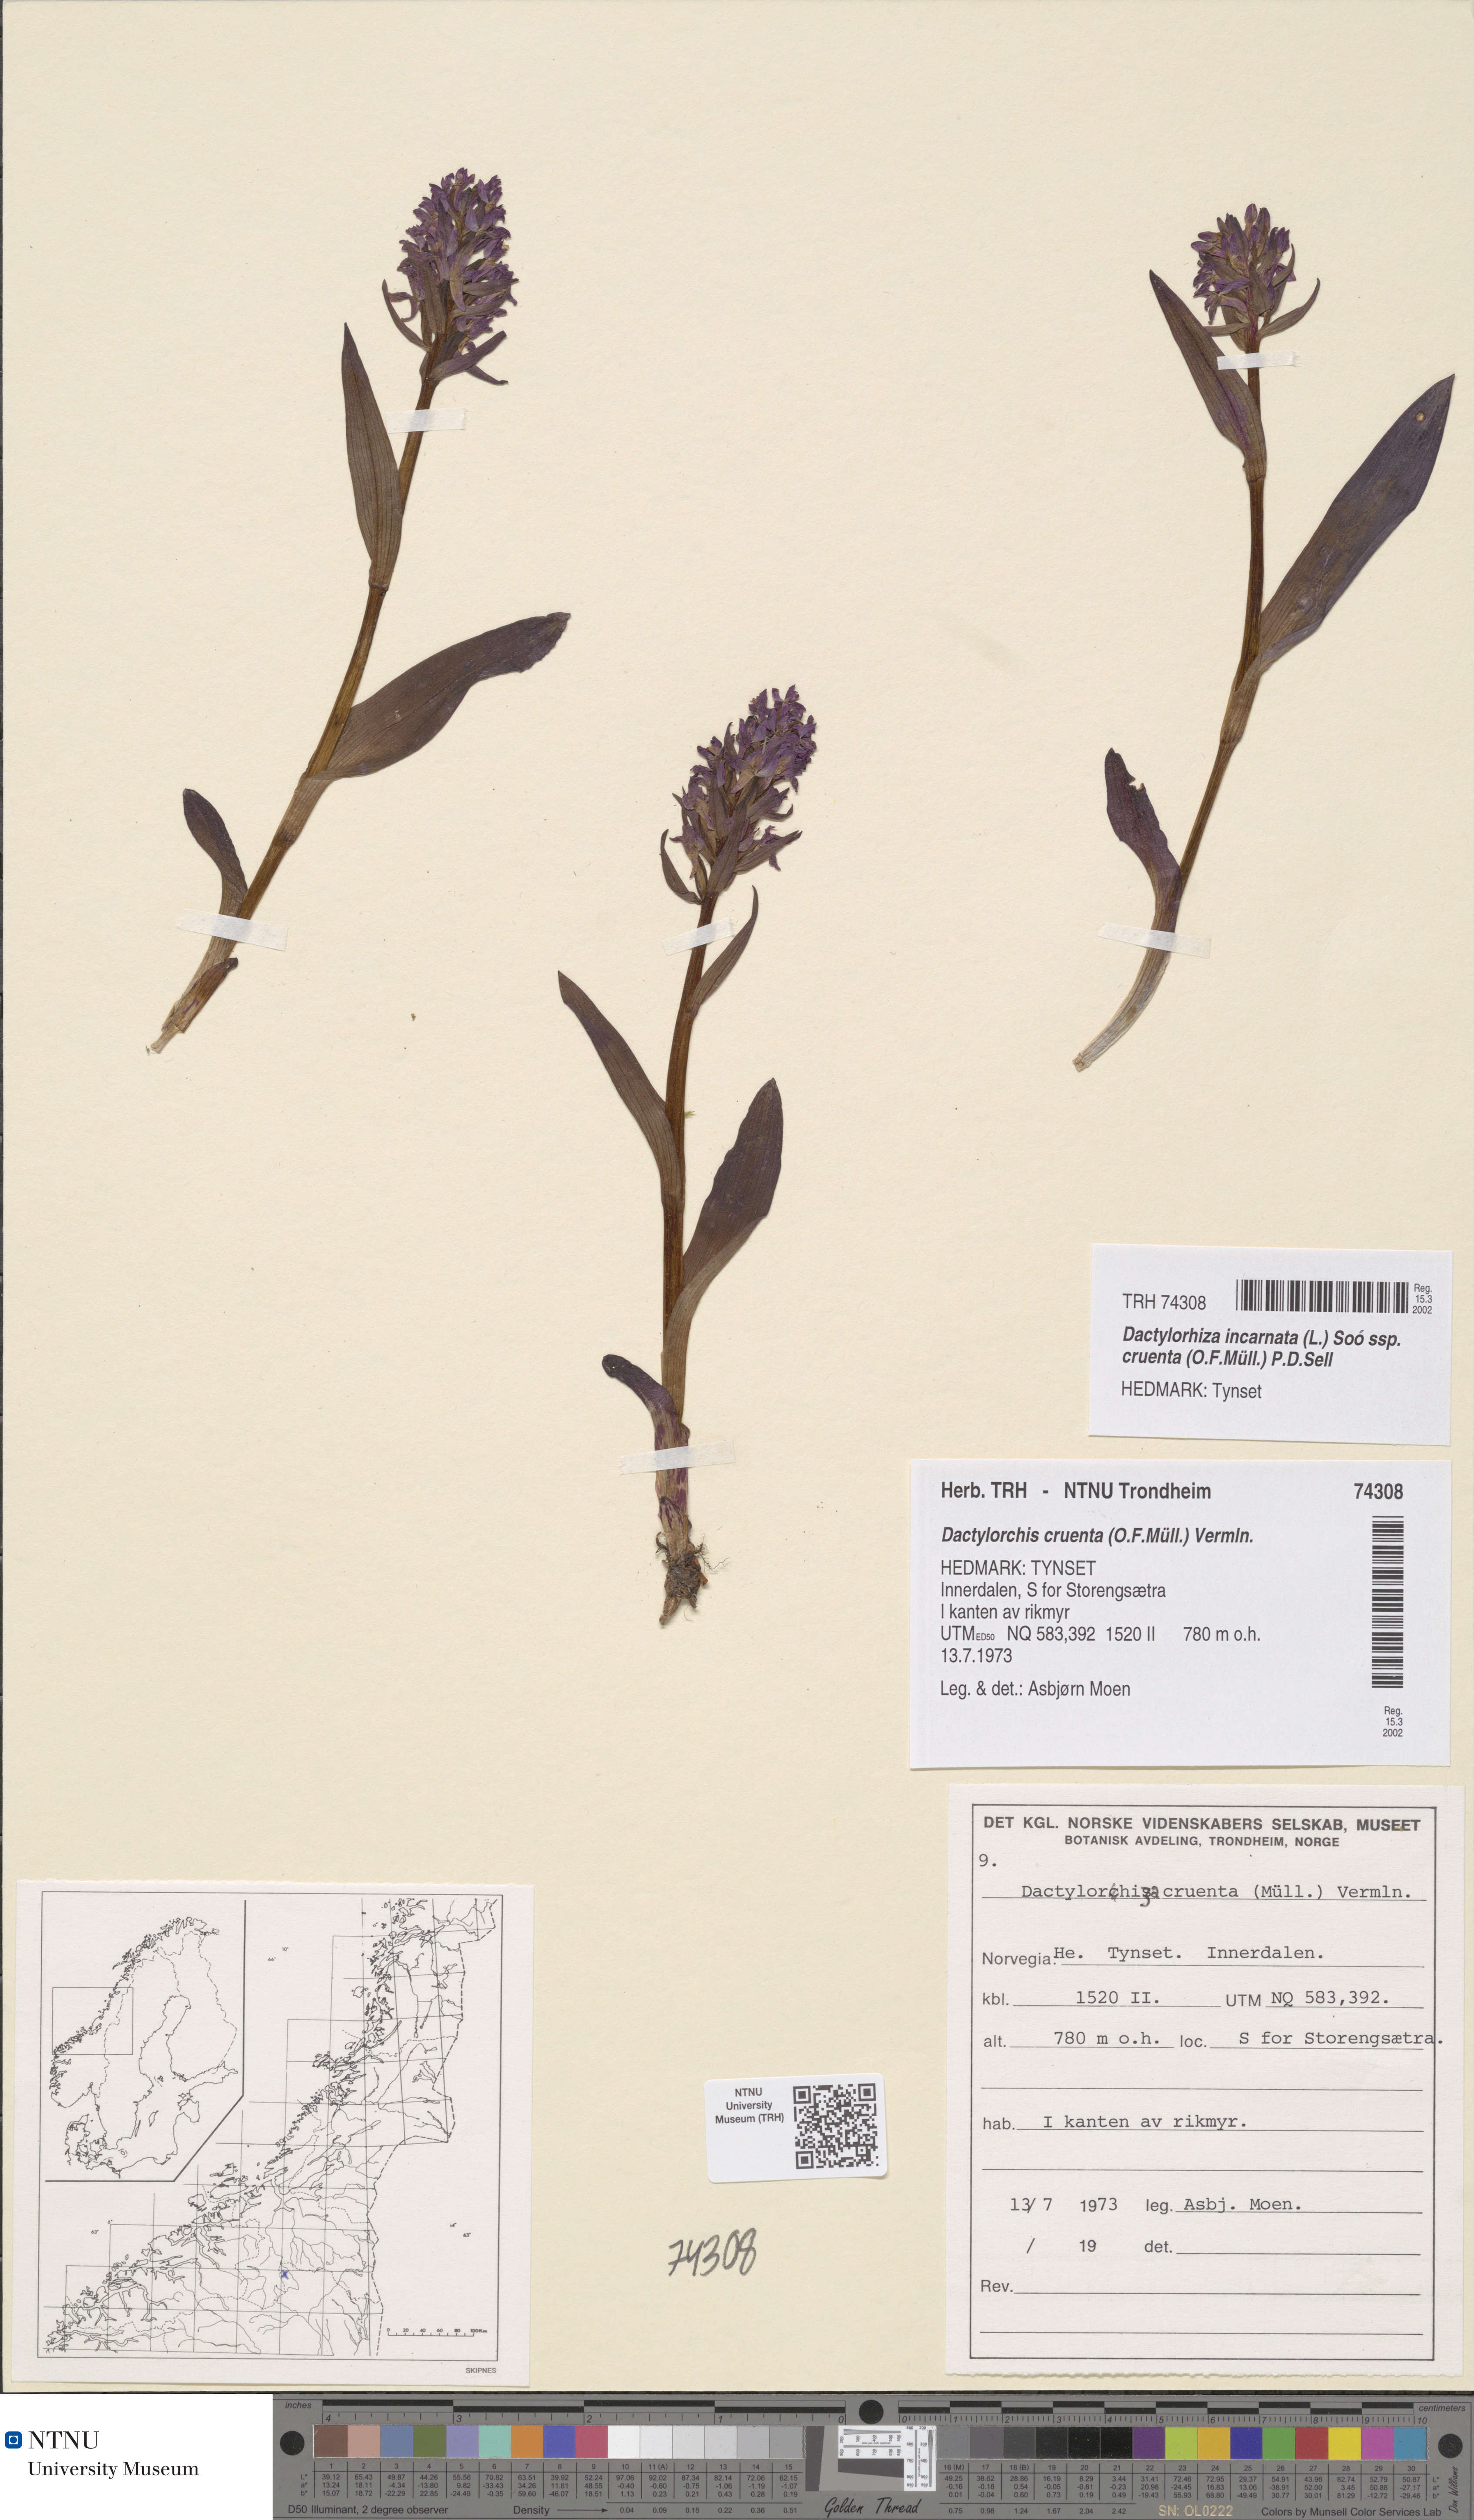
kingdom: Plantae
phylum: Tracheophyta
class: Liliopsida
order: Asparagales
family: Orchidaceae
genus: Dactylorhiza
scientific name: Dactylorhiza incarnata
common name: Early marsh-orchid
